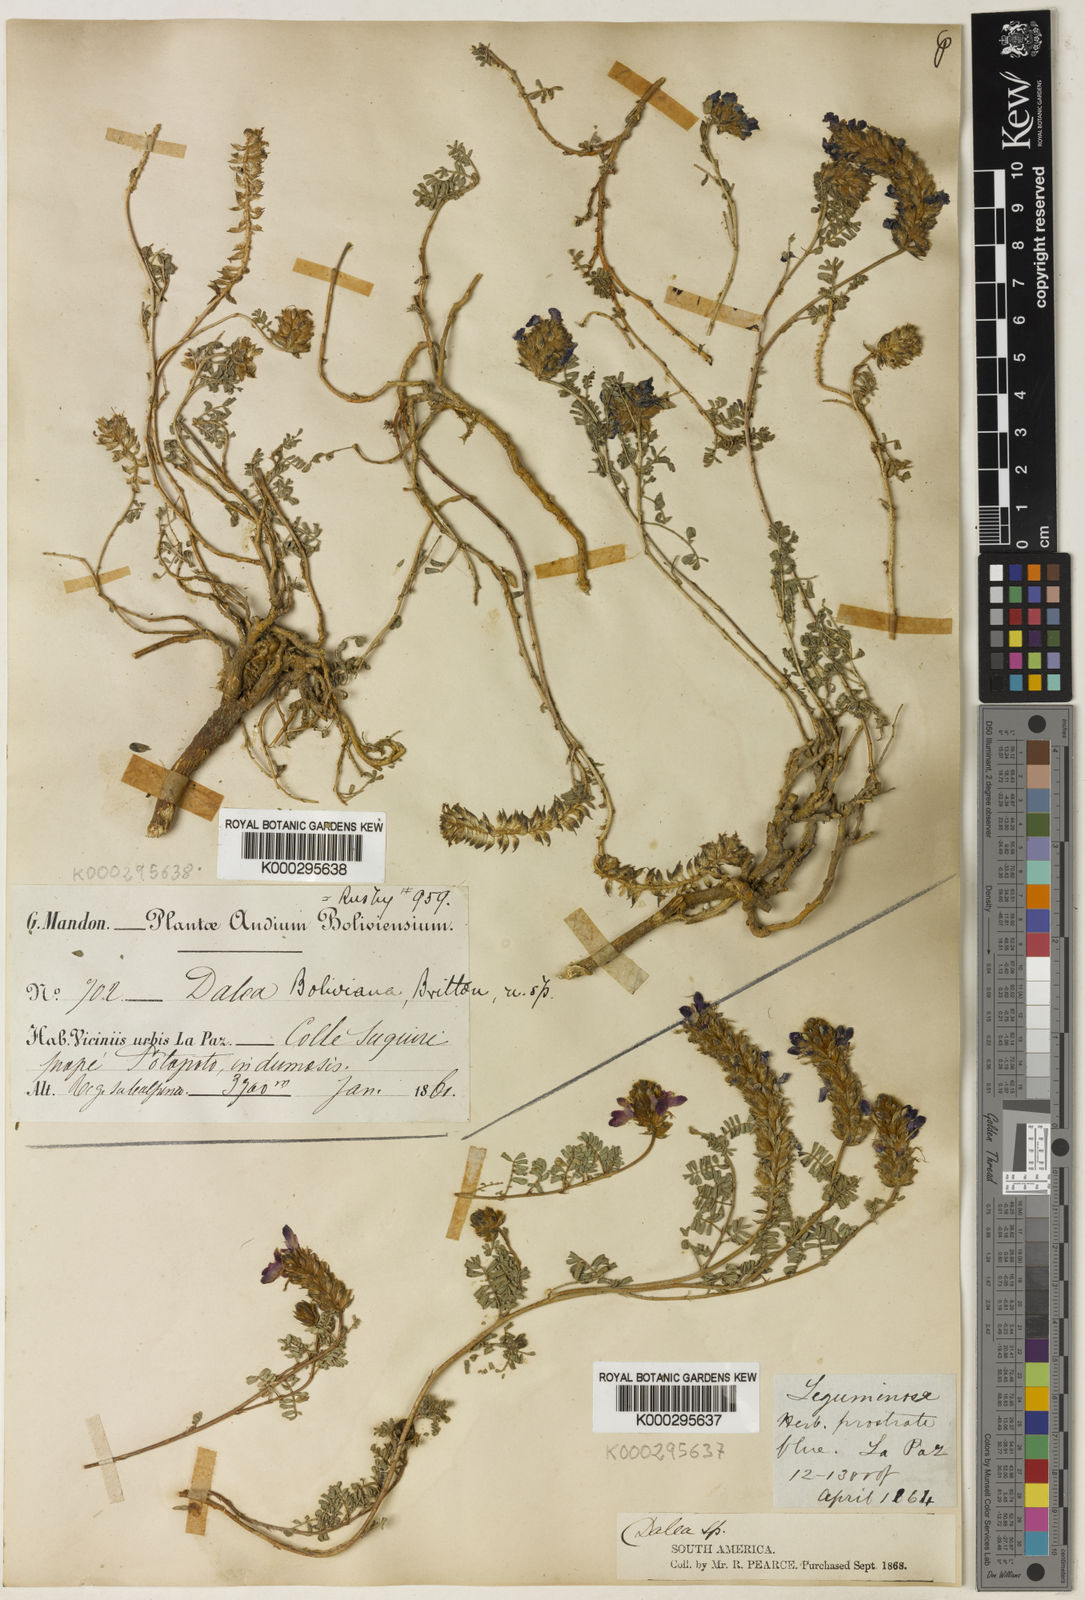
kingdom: Plantae
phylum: Tracheophyta
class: Magnoliopsida
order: Fabales
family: Fabaceae
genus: Dalea
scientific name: Dalea boliviana
